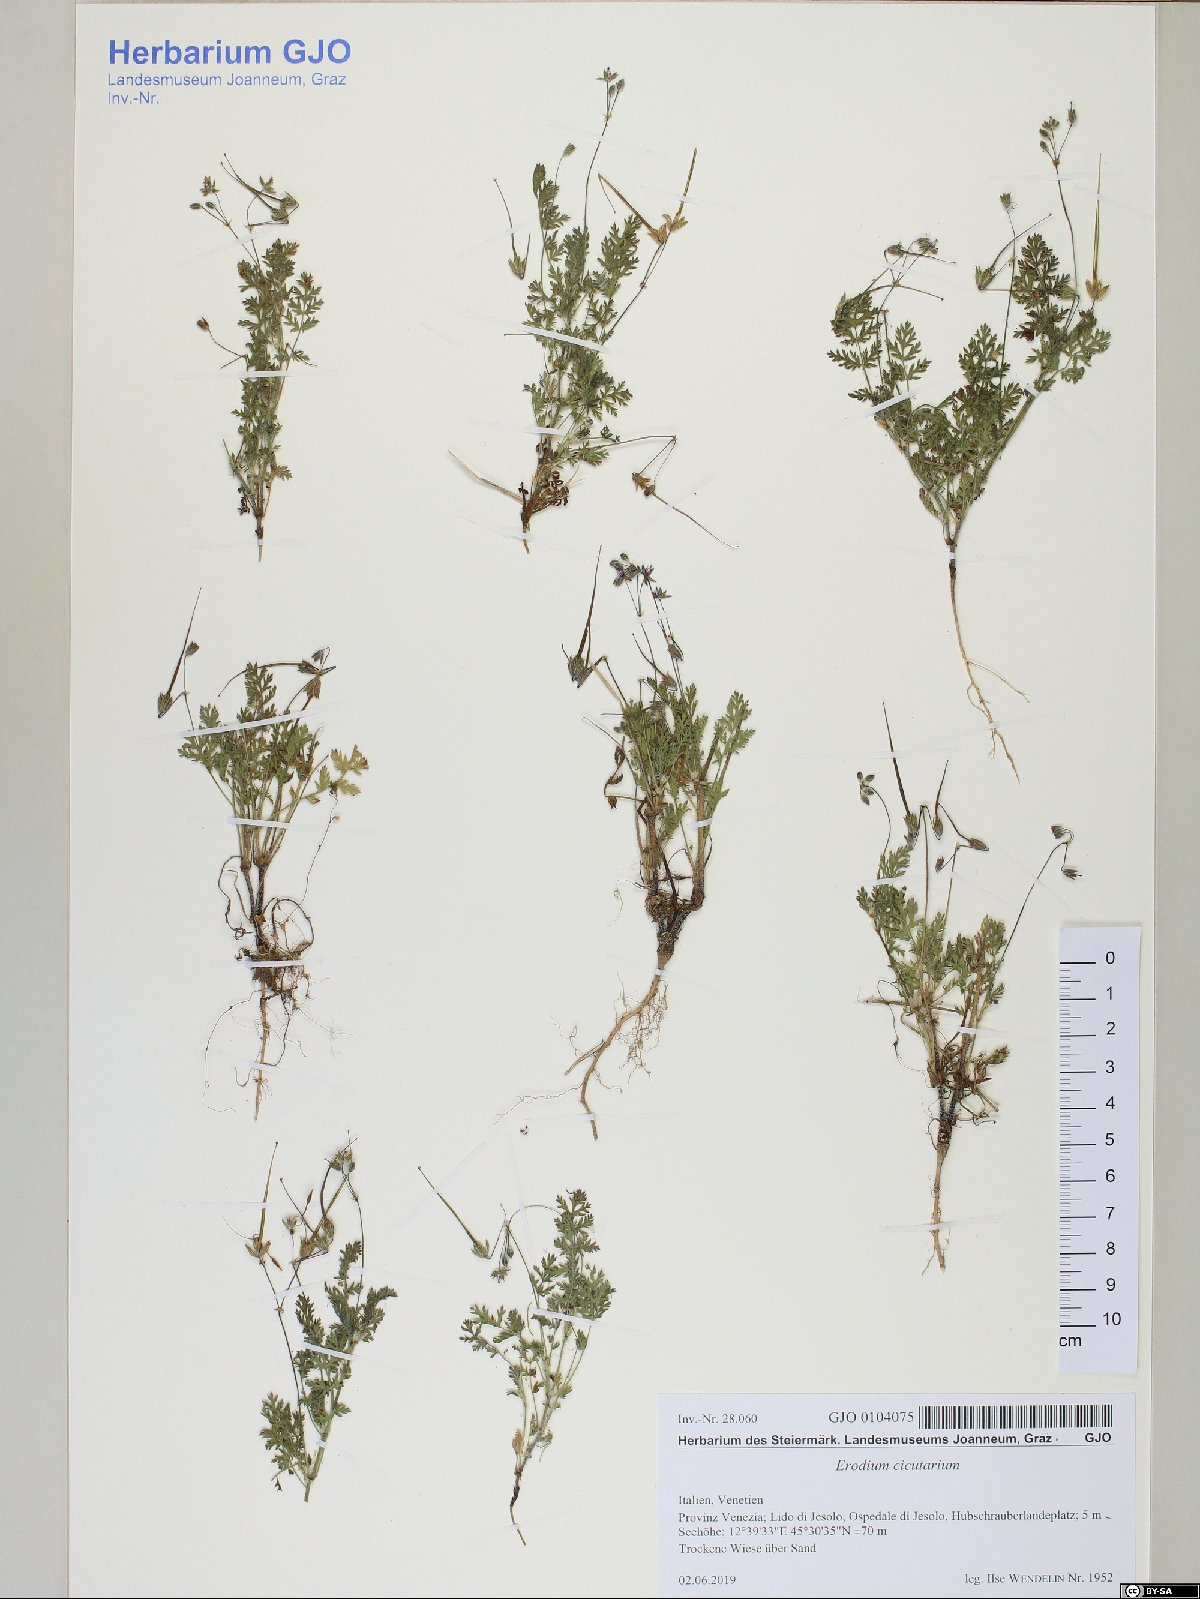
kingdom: Plantae
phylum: Tracheophyta
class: Magnoliopsida
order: Geraniales
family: Geraniaceae
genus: Erodium
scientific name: Erodium cicutarium
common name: Common stork's-bill
